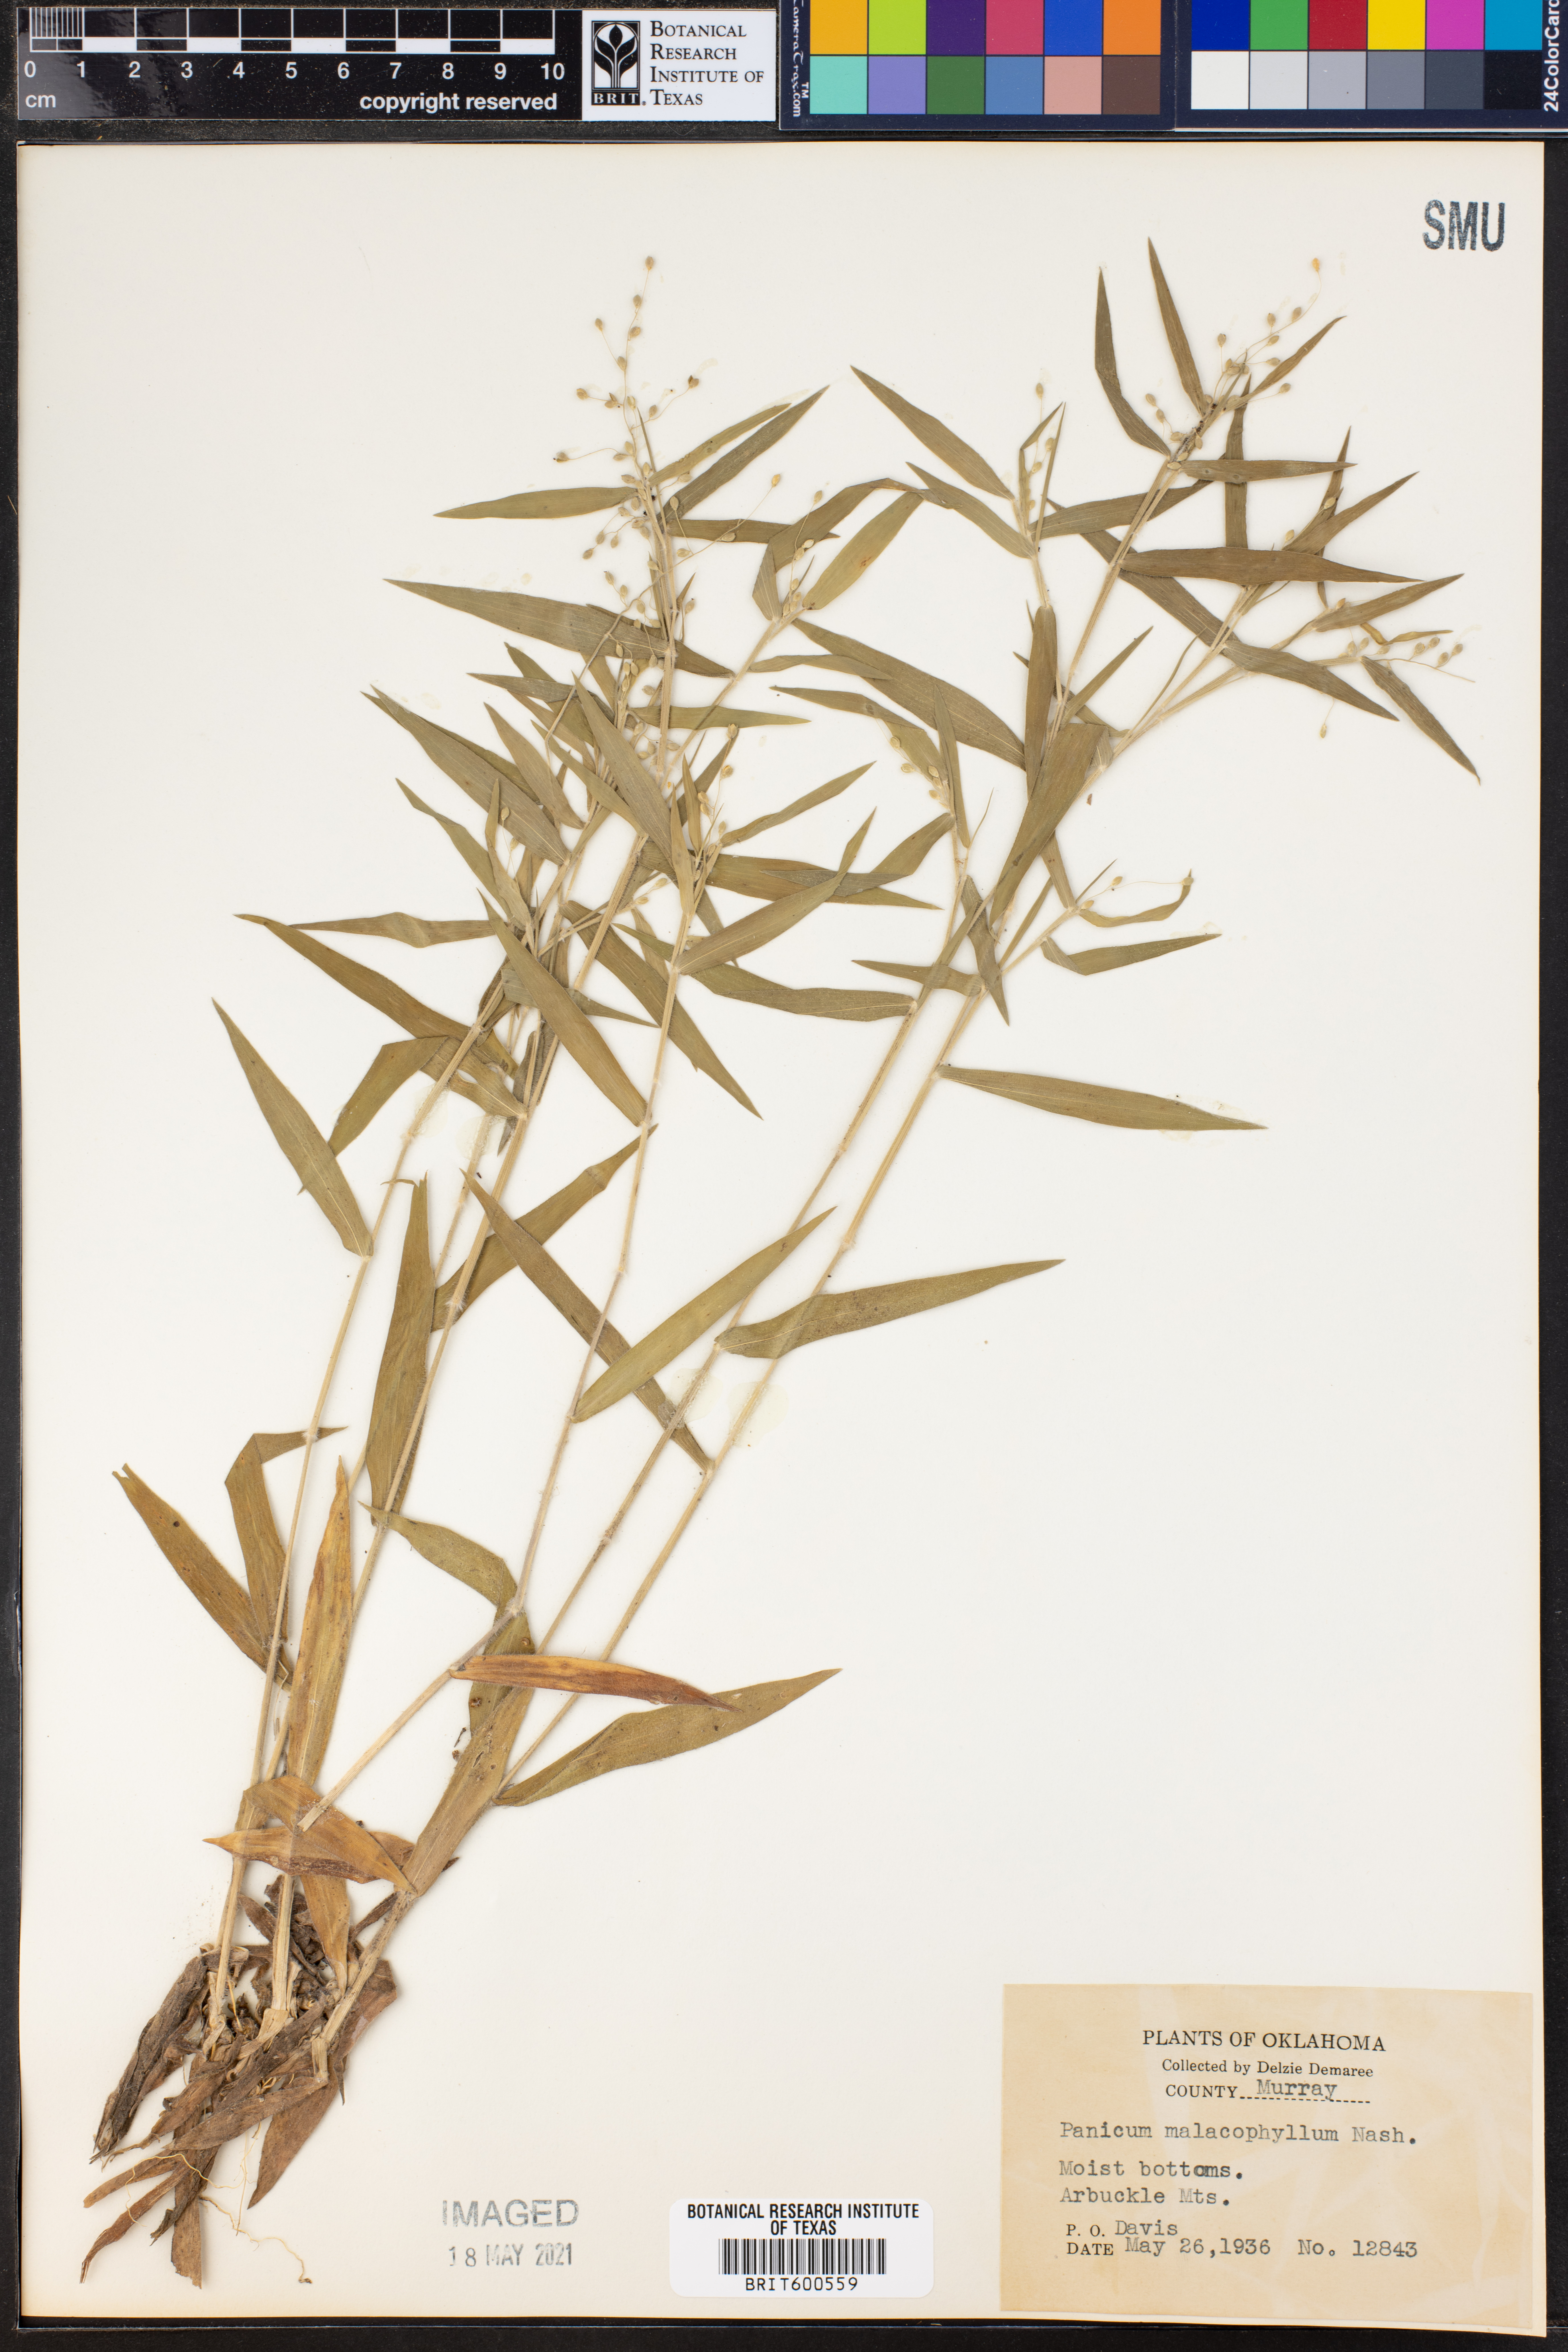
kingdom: Plantae
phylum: Tracheophyta
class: Liliopsida
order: Poales
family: Poaceae
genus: Dichanthelium
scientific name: Dichanthelium malacophyllum
